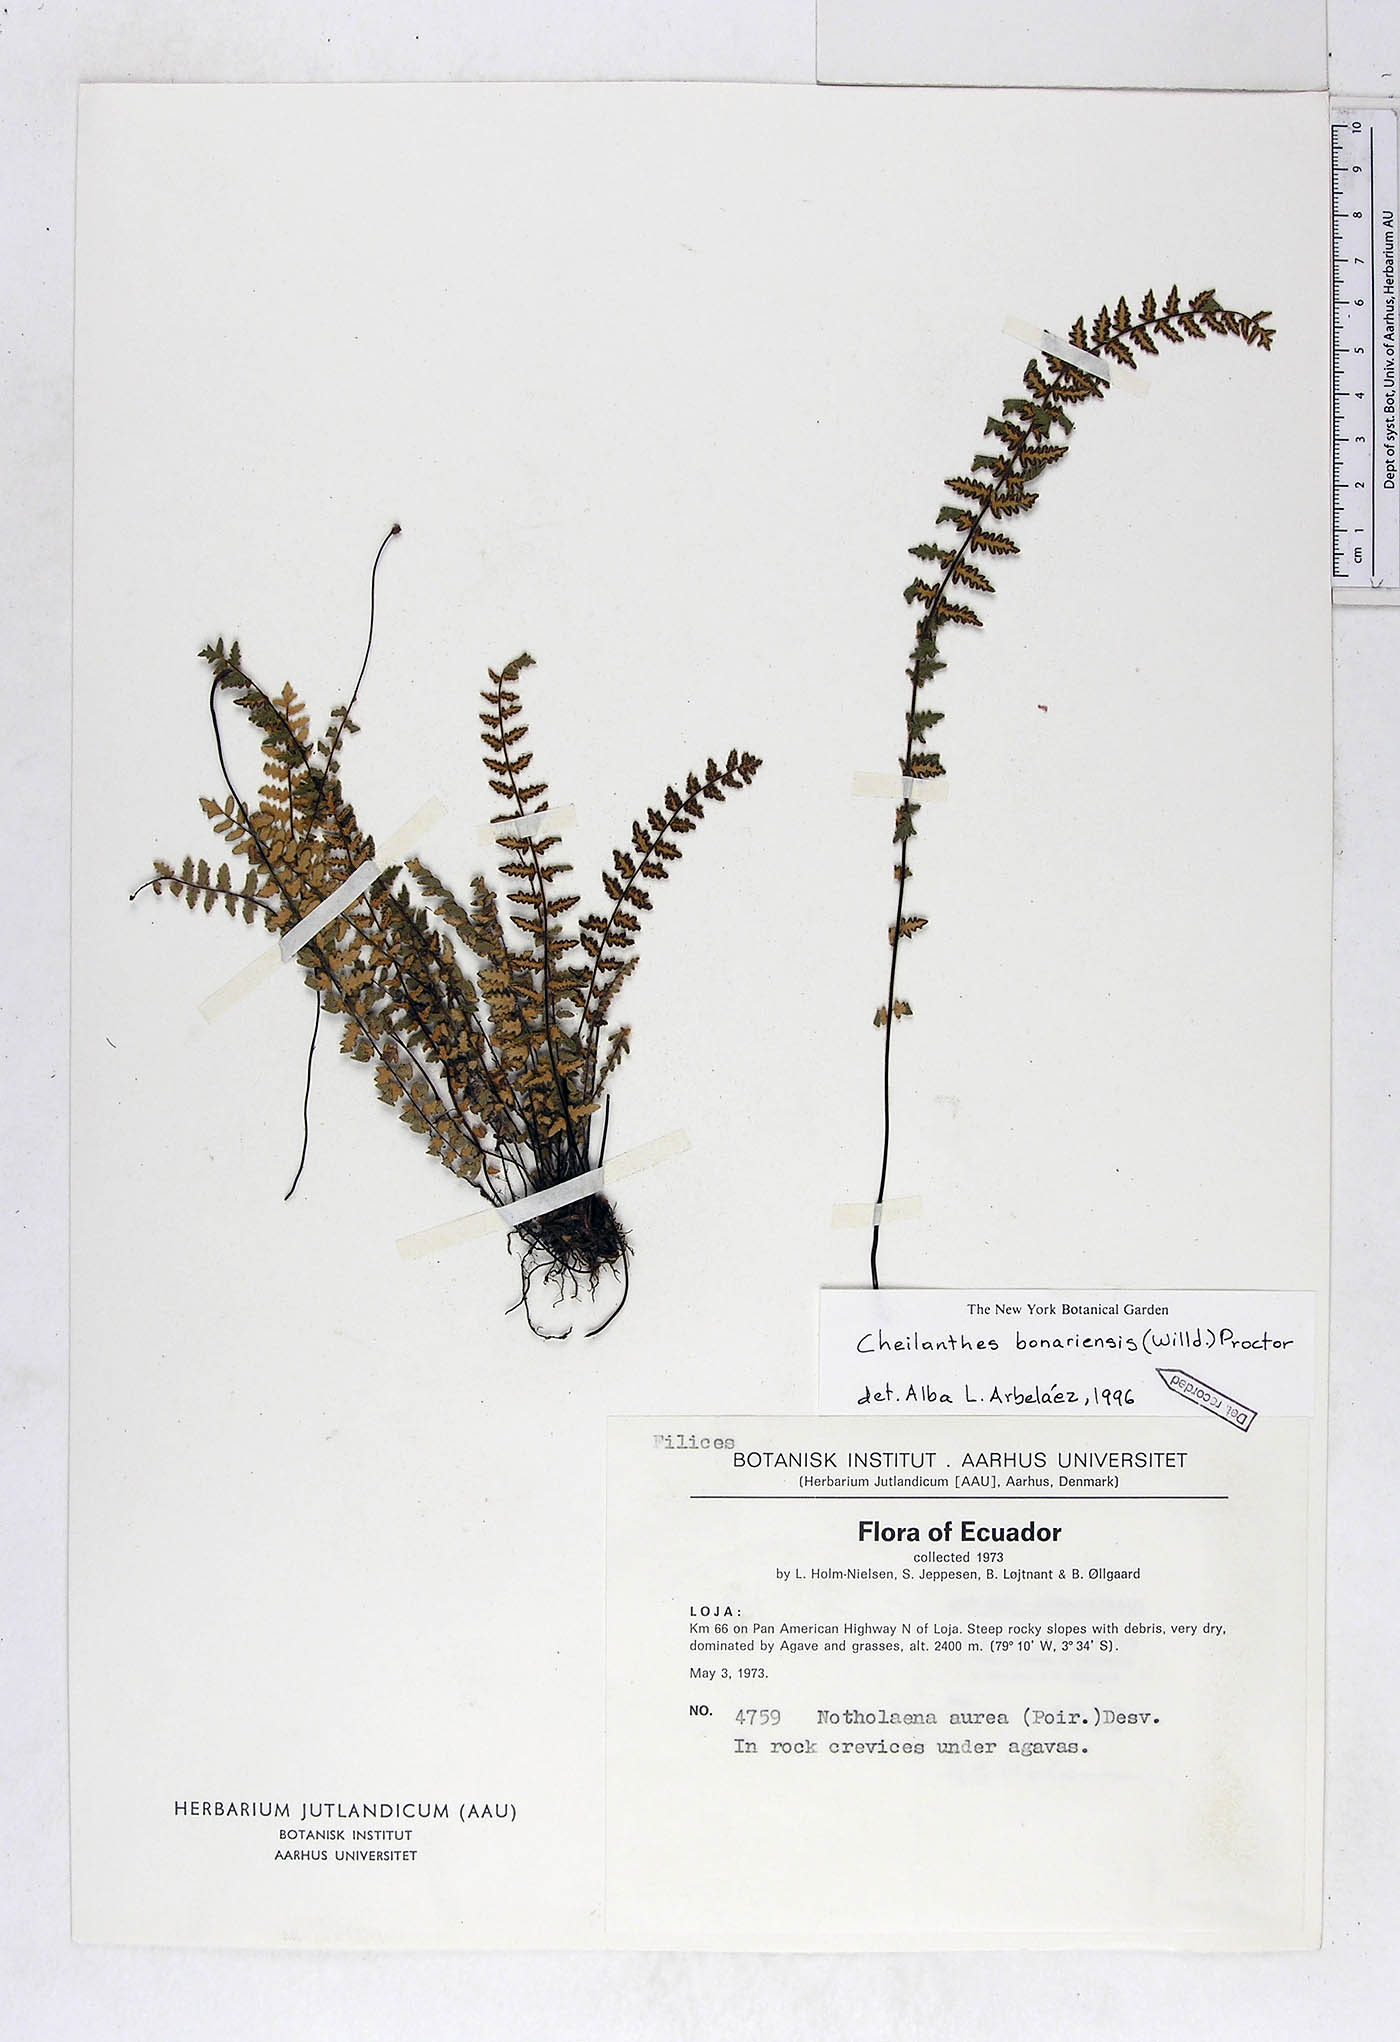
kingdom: Plantae
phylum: Tracheophyta
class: Polypodiopsida
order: Polypodiales
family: Pteridaceae
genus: Myriopteris
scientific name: Myriopteris aurea
